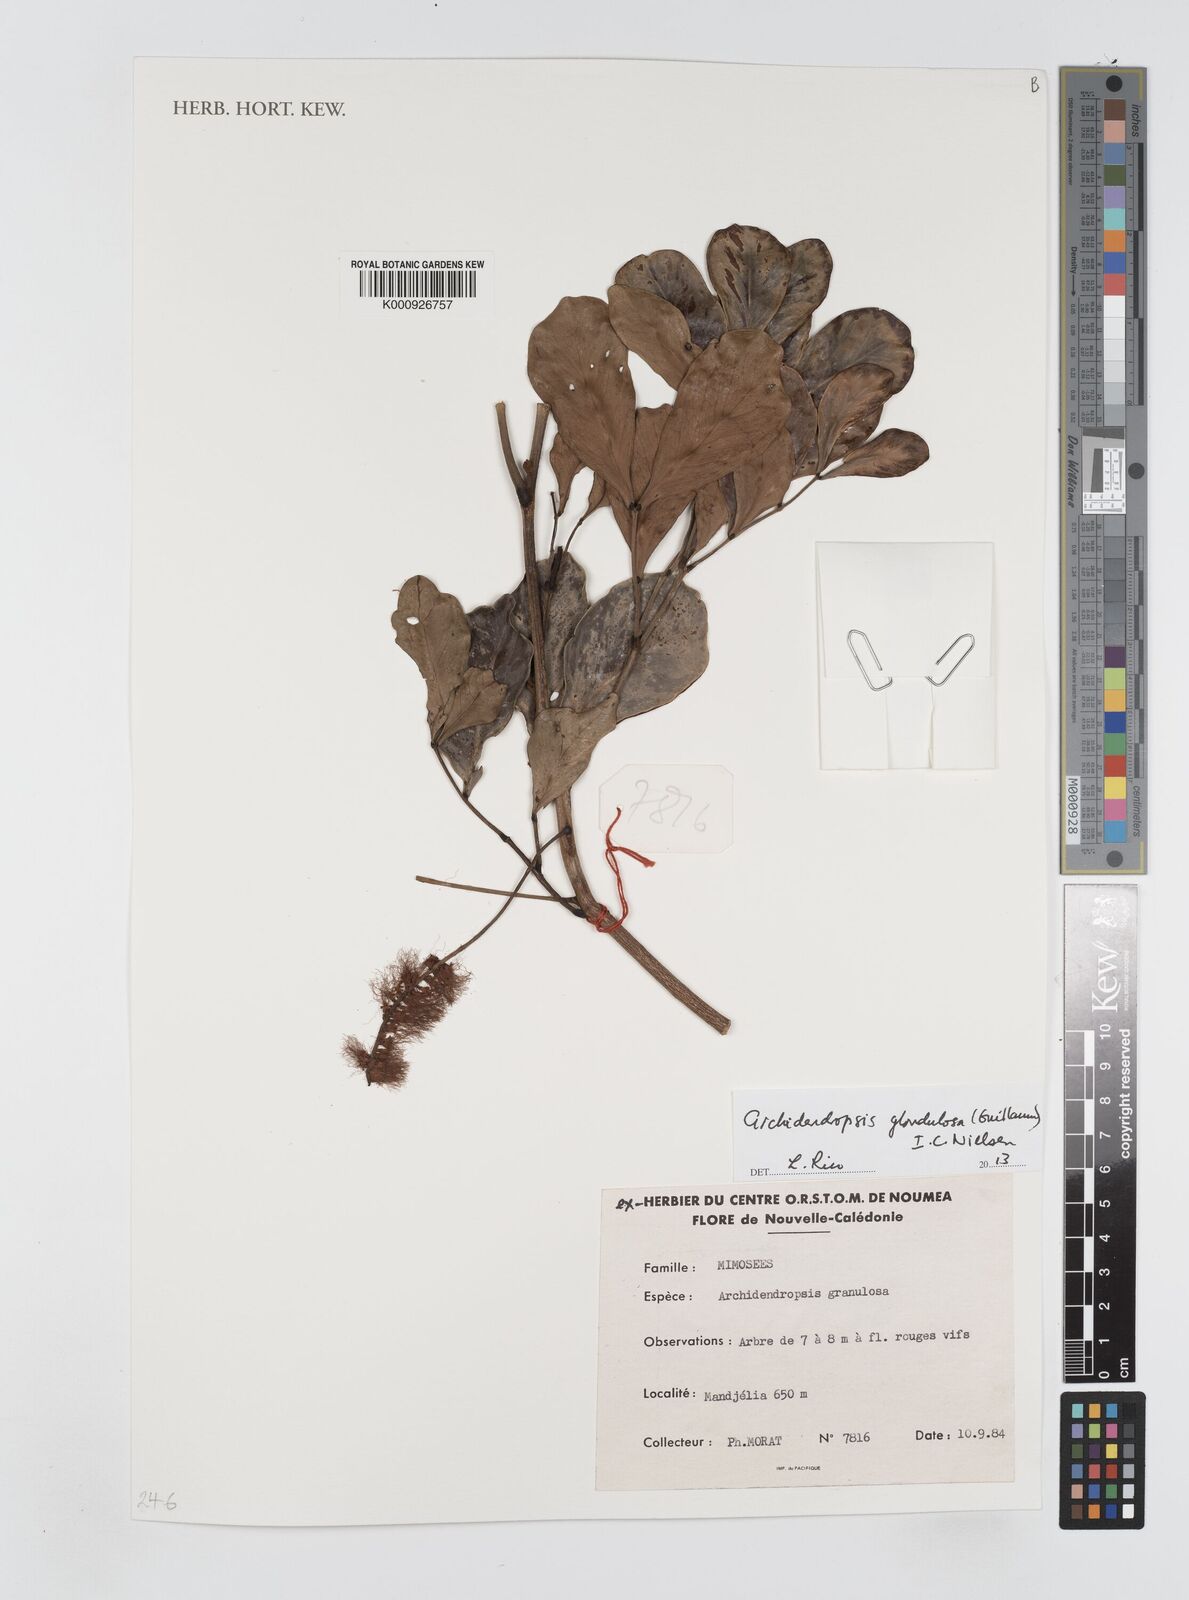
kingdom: Plantae
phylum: Tracheophyta
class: Magnoliopsida
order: Fabales
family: Fabaceae
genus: Archidendropsis
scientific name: Archidendropsis glandulosa
